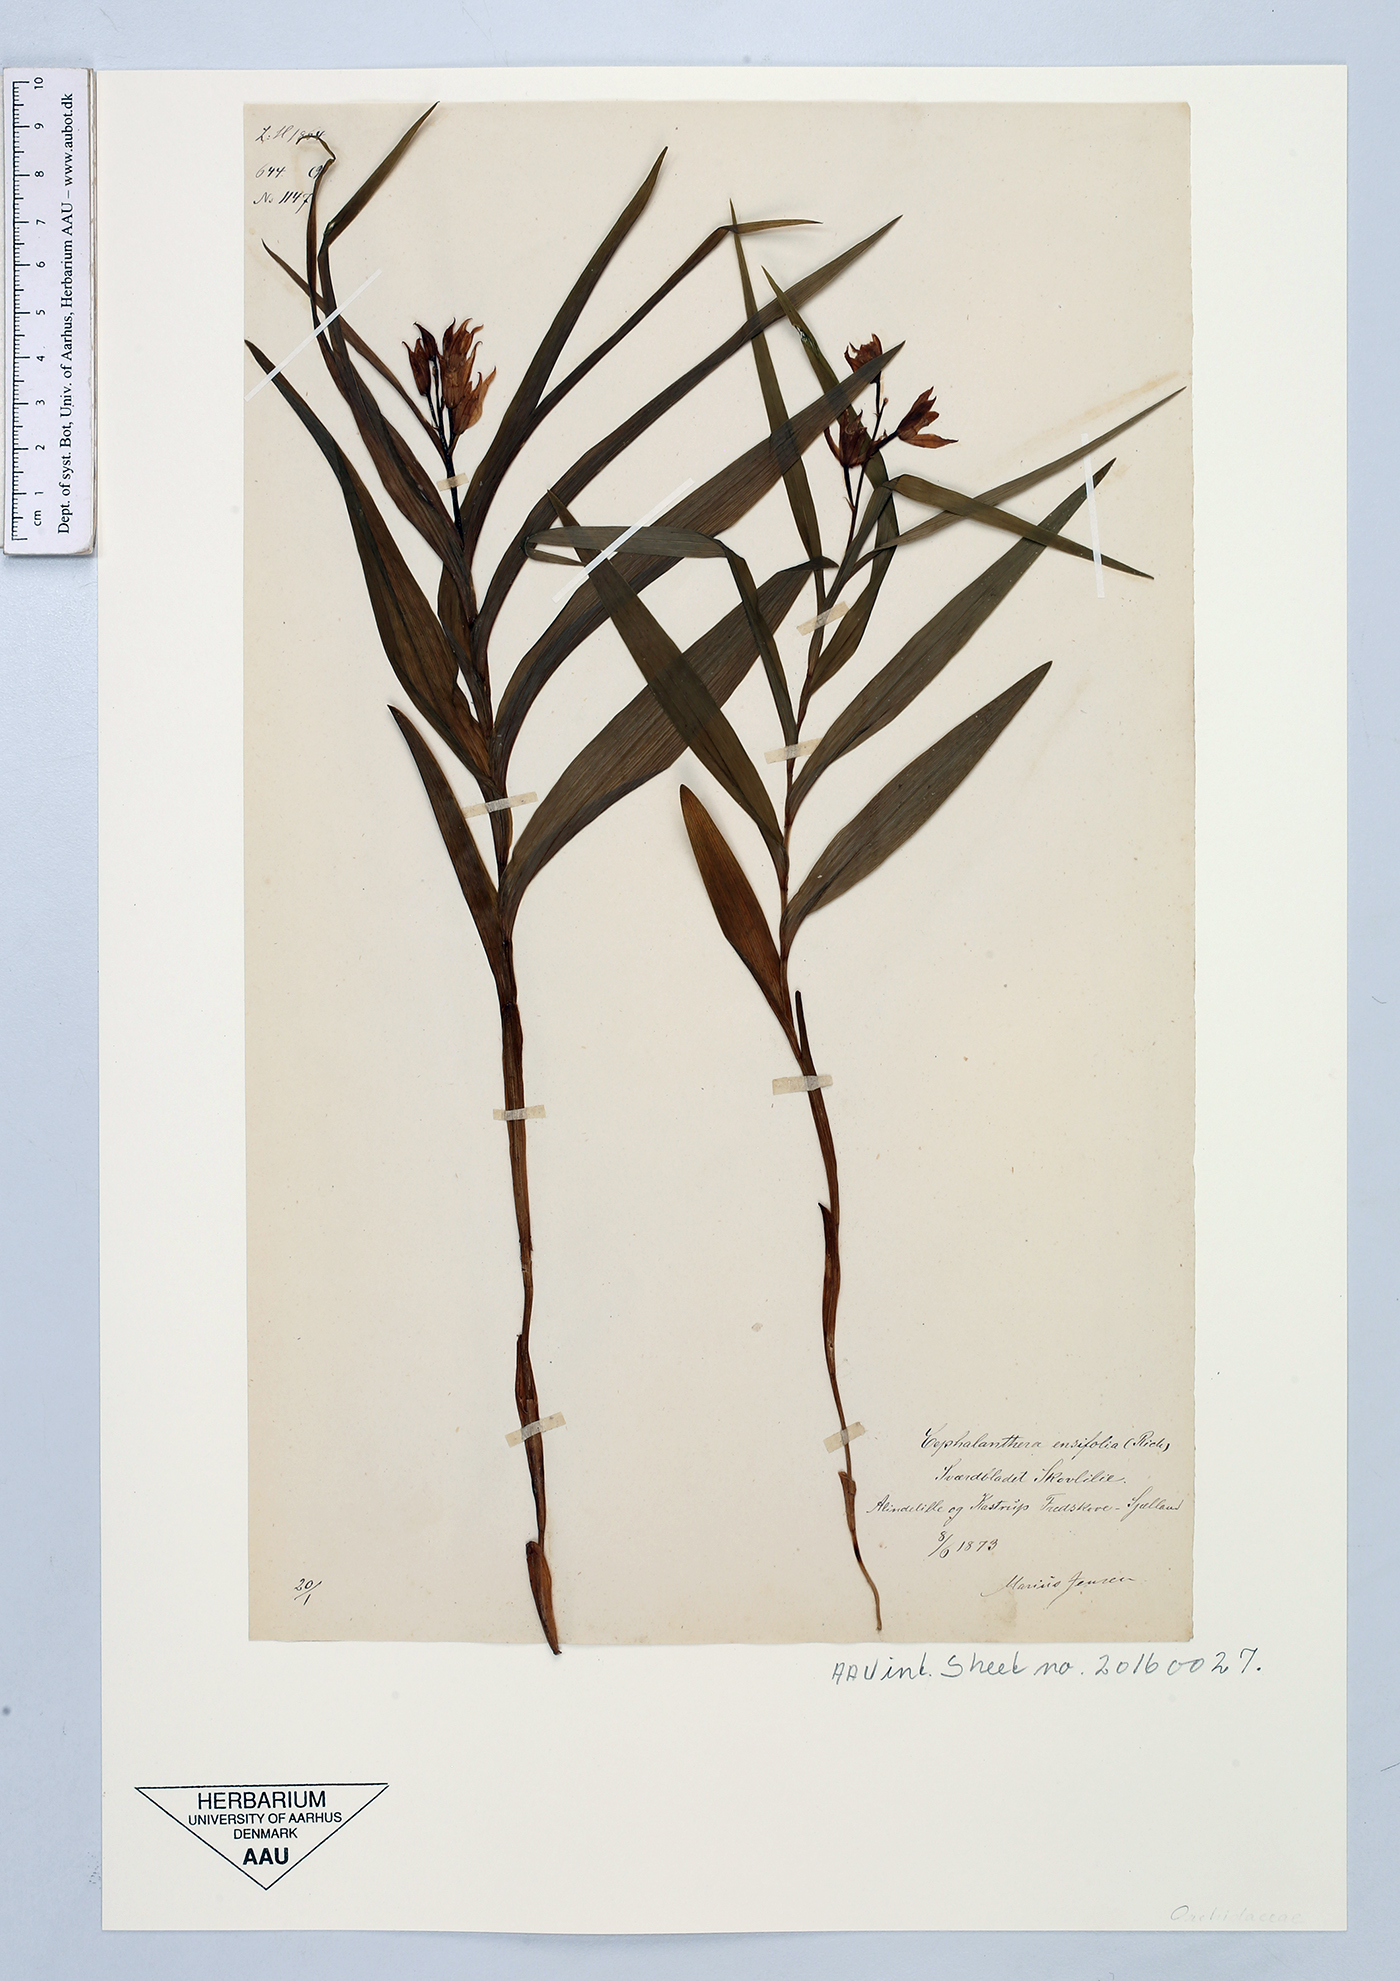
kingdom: Plantae
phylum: Tracheophyta
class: Liliopsida
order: Asparagales
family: Orchidaceae
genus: Cephalanthera
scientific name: Cephalanthera longifolia
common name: Narrow-leaved helleborine
